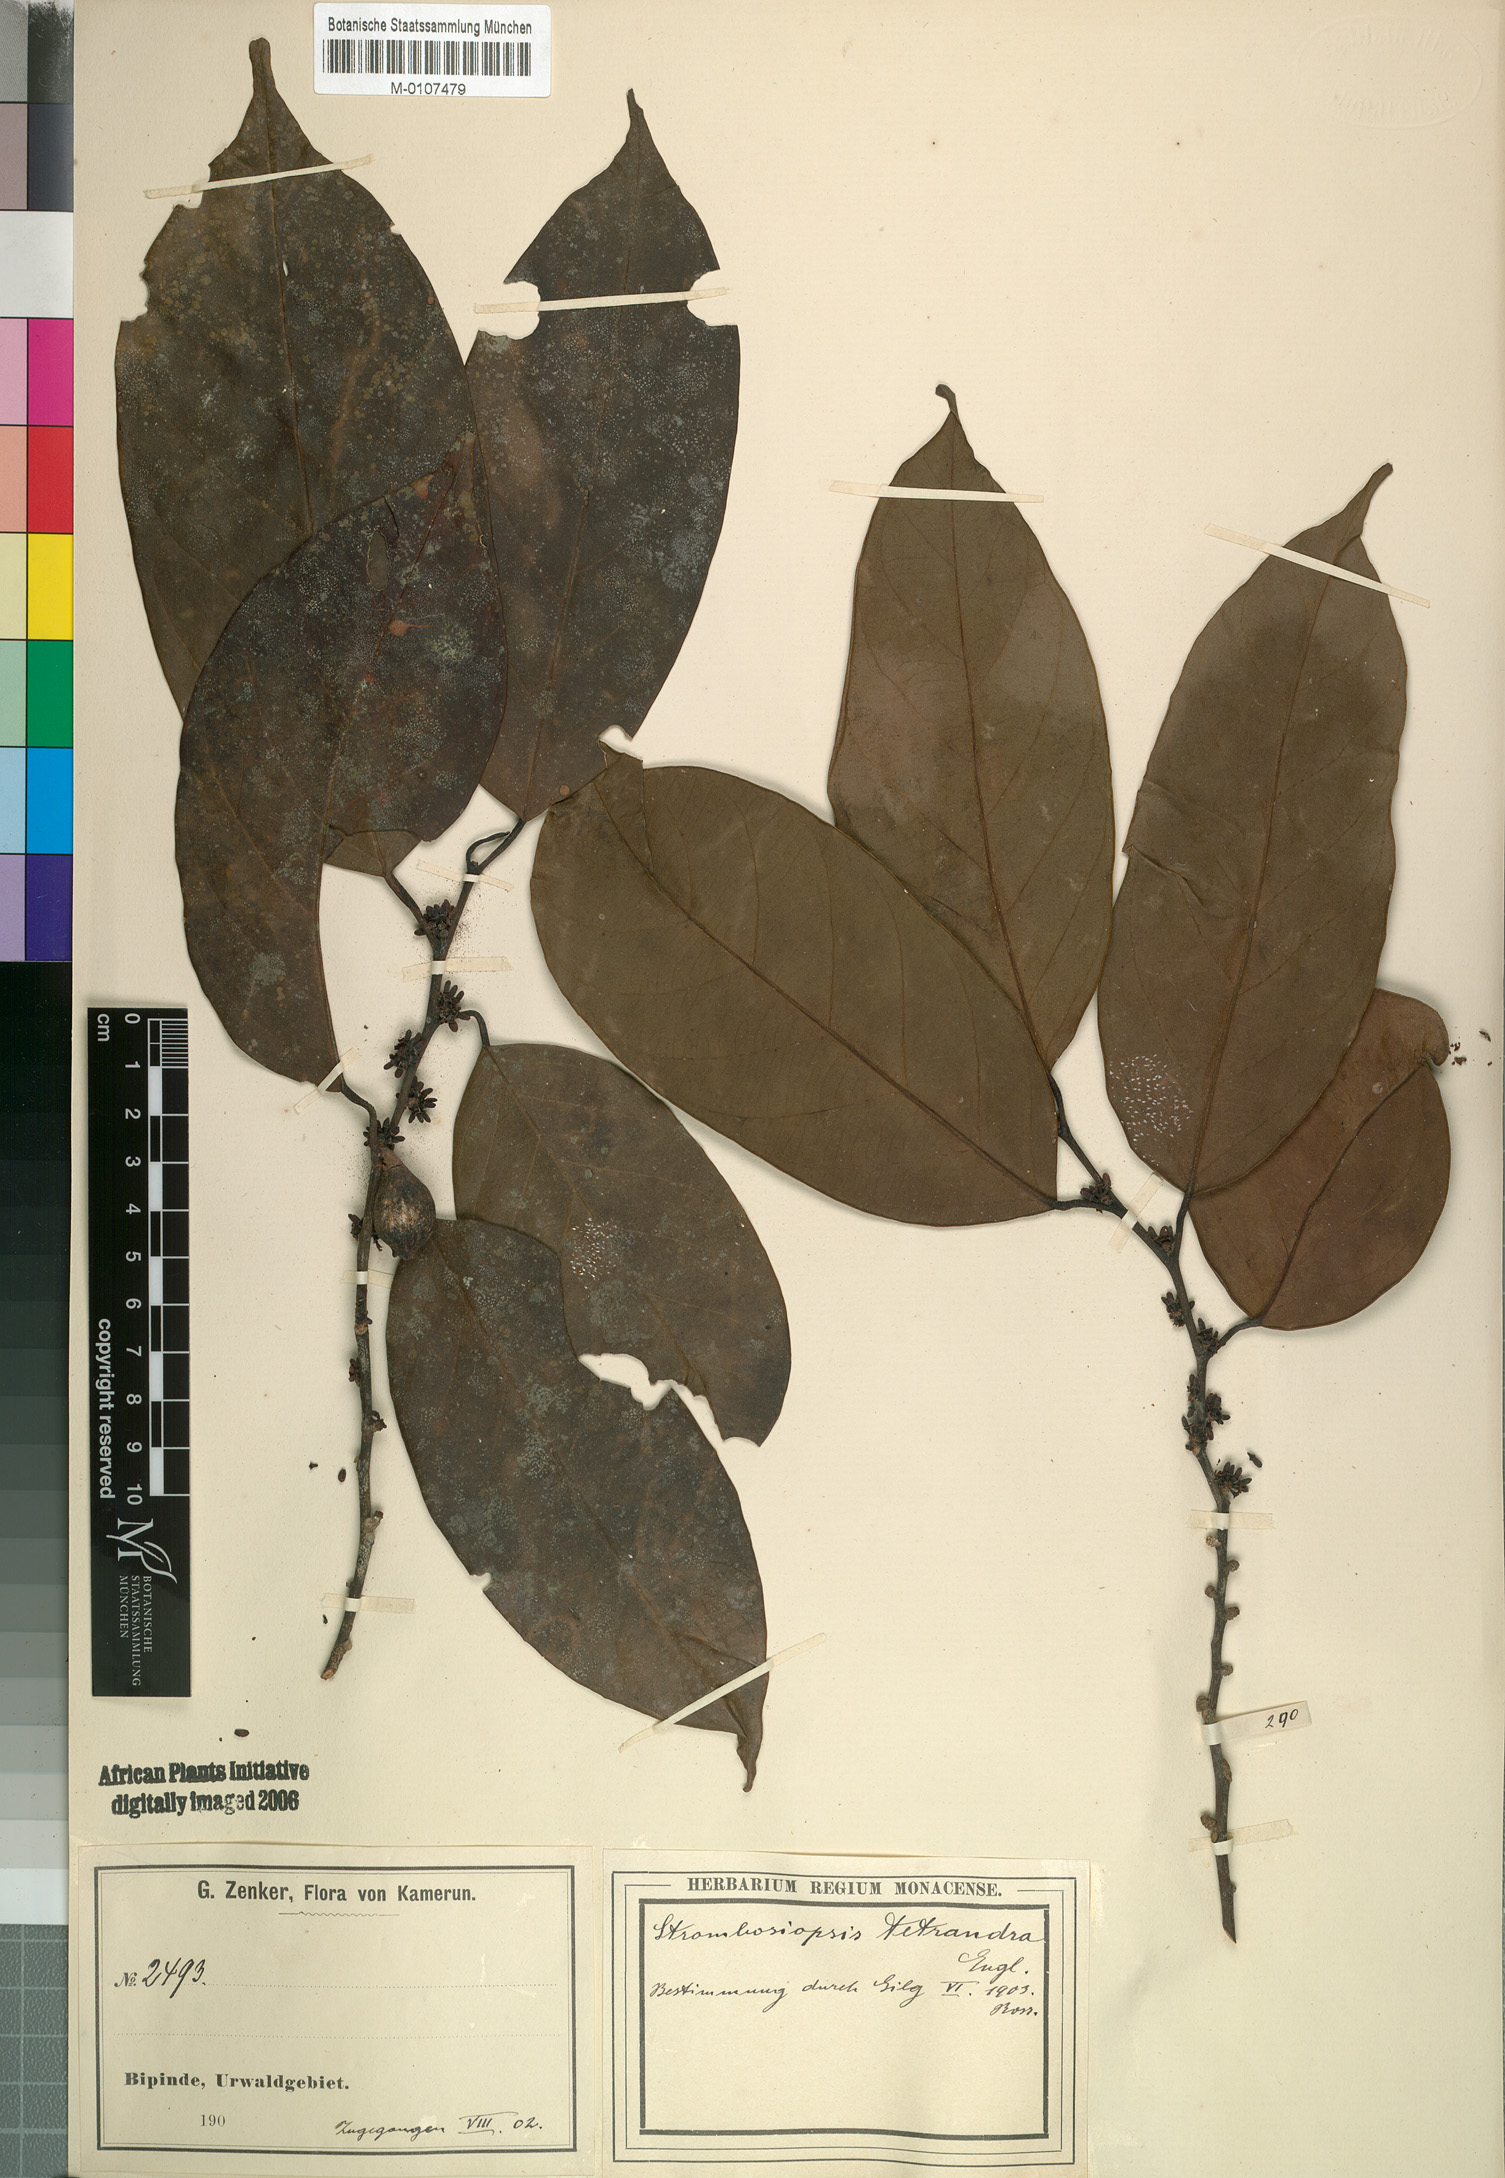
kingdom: Plantae
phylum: Tracheophyta
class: Magnoliopsida
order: Santalales
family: Strombosiaceae
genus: Strombosiopsis
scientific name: Strombosiopsis tetrandra
